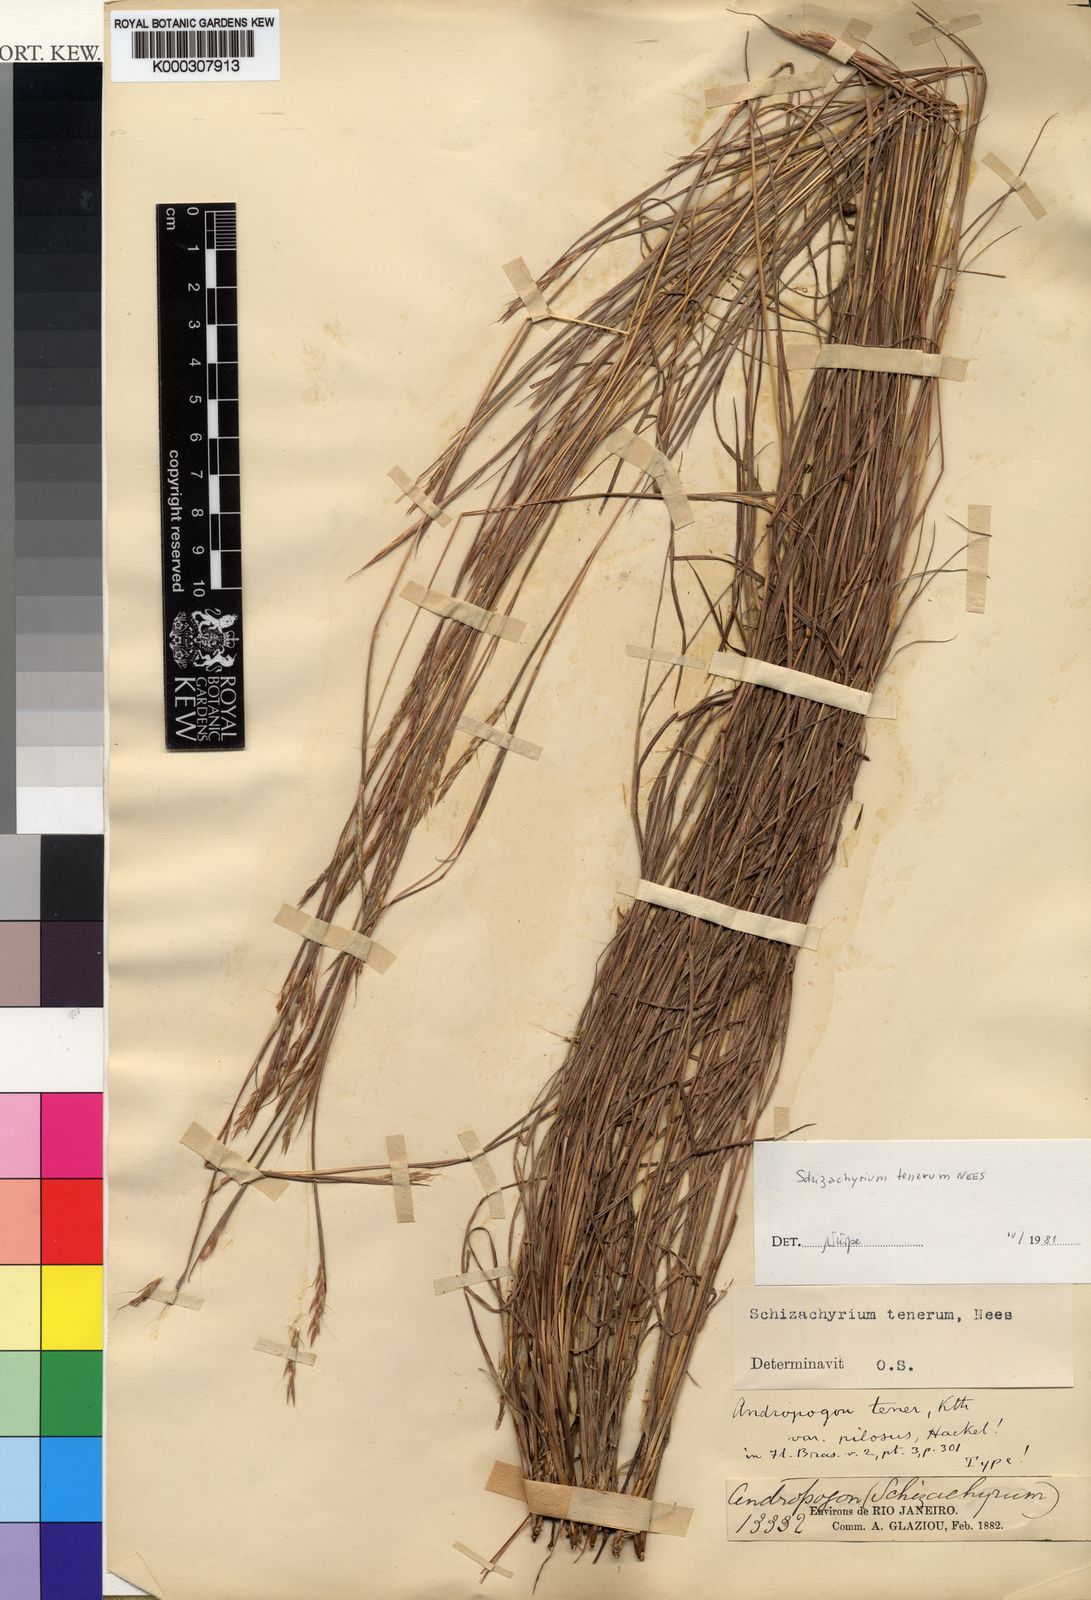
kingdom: Plantae
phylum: Tracheophyta
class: Liliopsida
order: Poales
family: Poaceae
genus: Andropogon
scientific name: Andropogon tener
